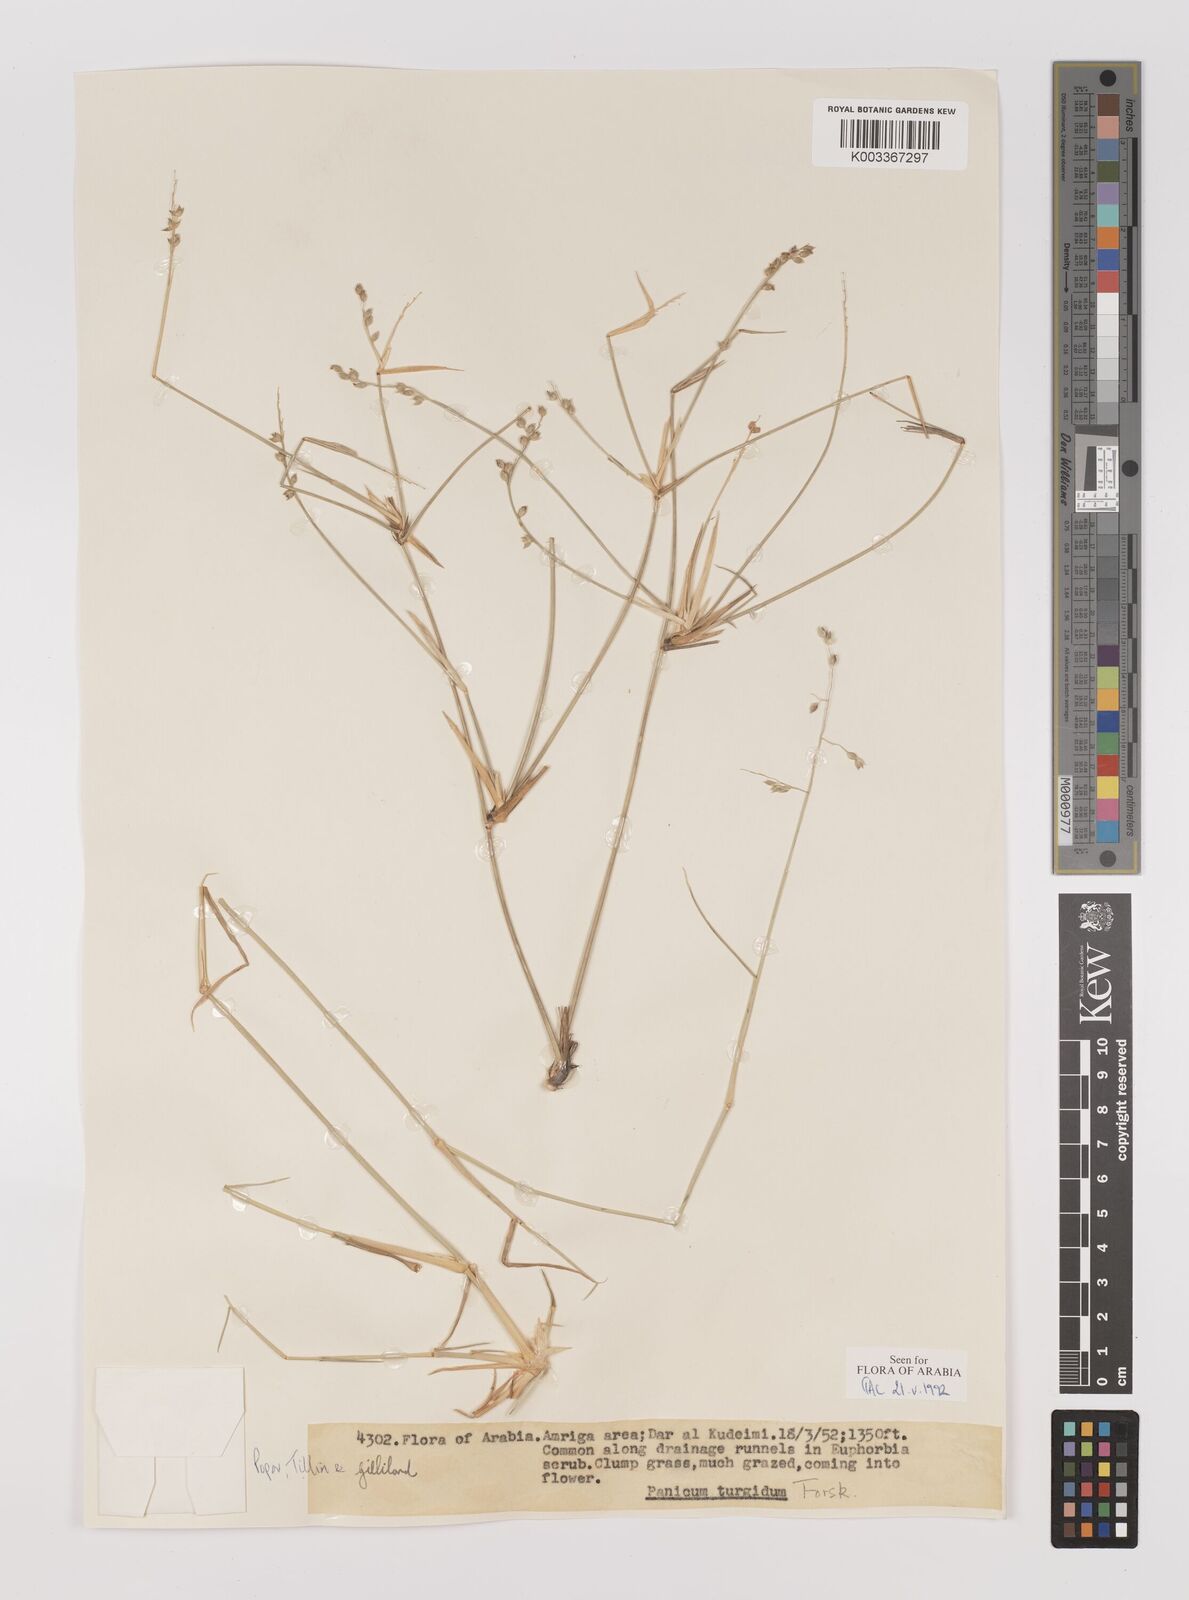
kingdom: Plantae
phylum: Tracheophyta
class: Liliopsida
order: Poales
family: Poaceae
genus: Panicum
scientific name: Panicum turgidum
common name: Desert grass
